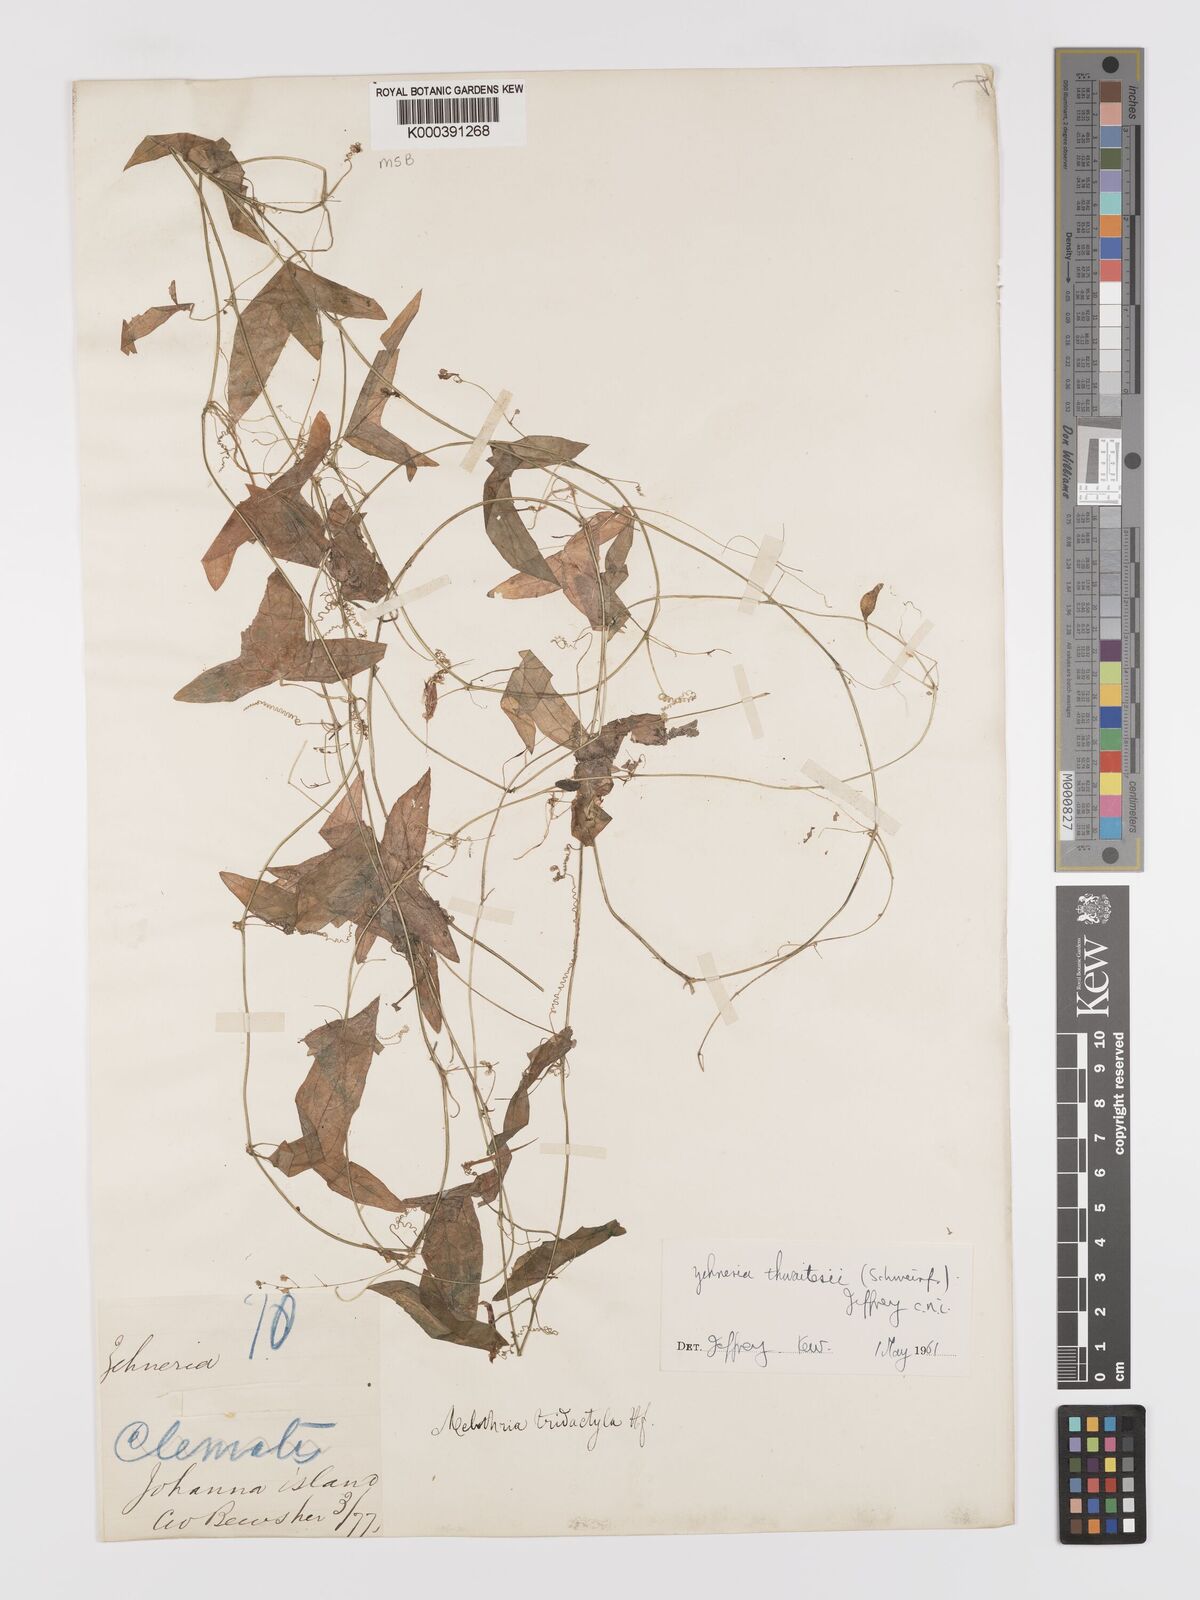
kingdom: Plantae
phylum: Tracheophyta
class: Magnoliopsida
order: Cucurbitales
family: Cucurbitaceae
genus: Zehneria
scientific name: Zehneria thwaitesii
